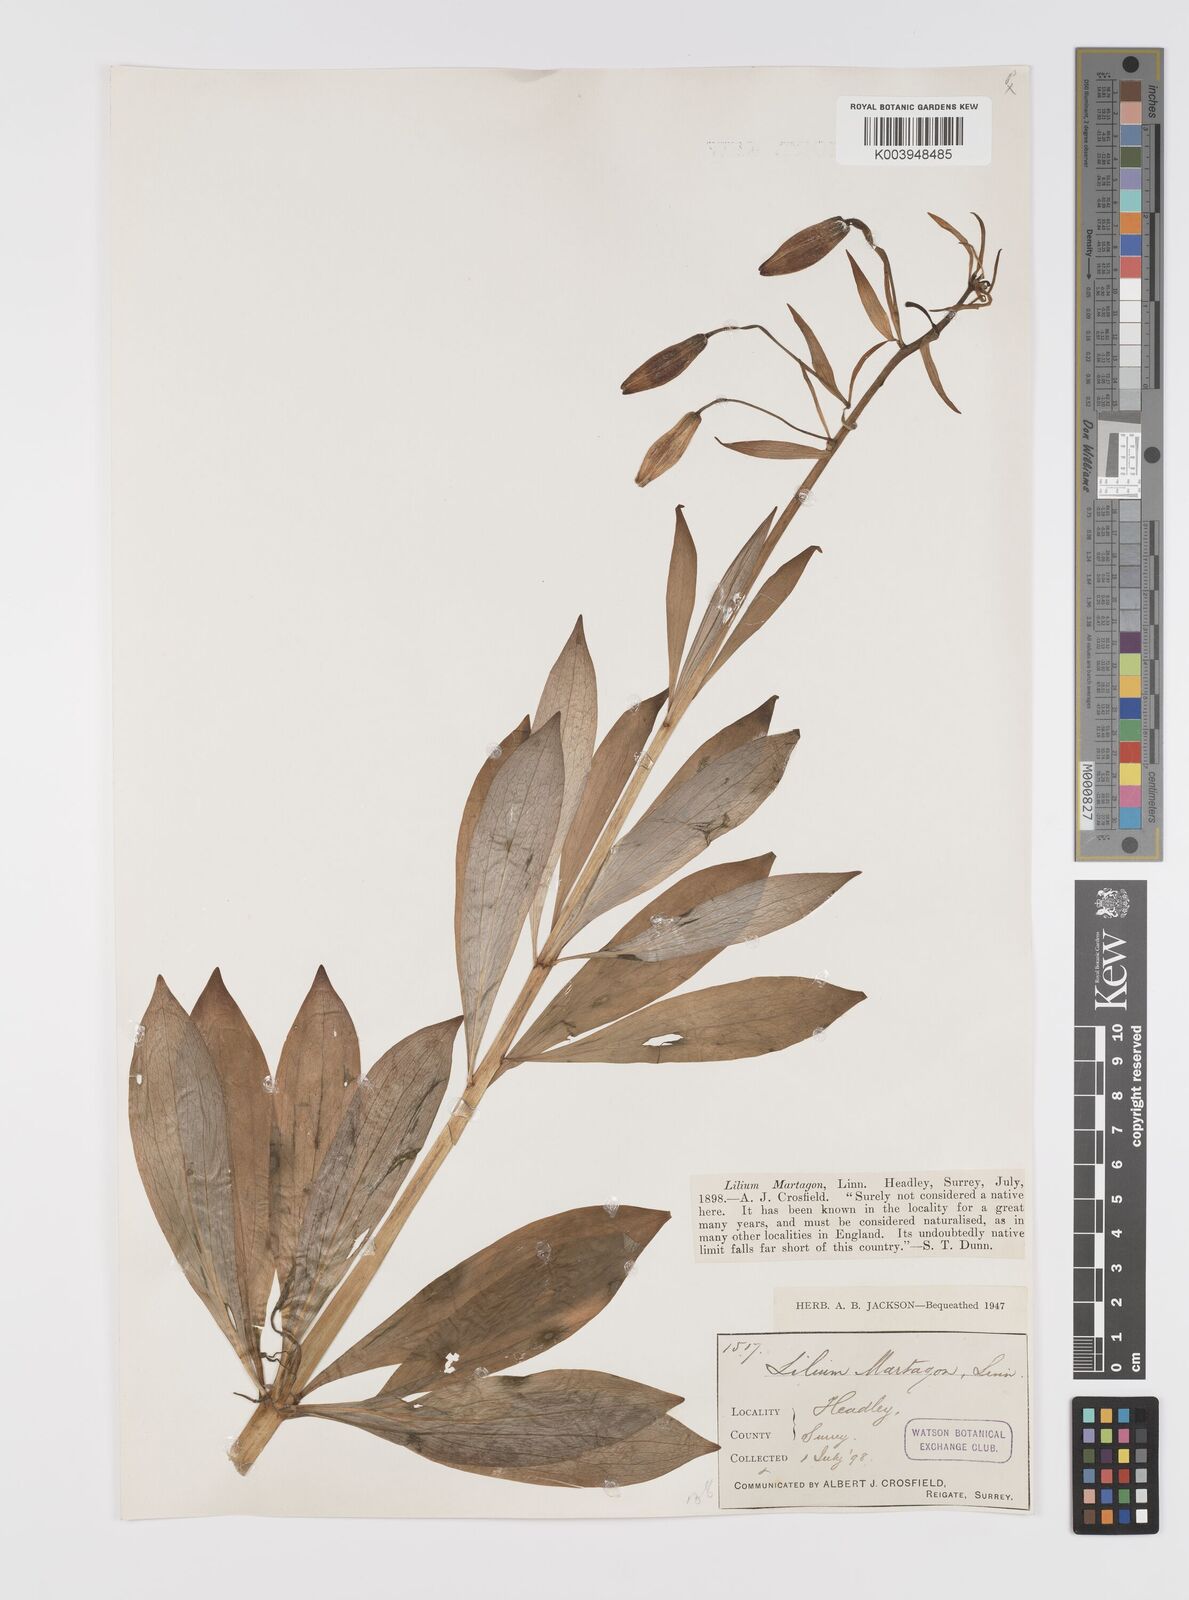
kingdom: Plantae
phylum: Tracheophyta
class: Liliopsida
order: Liliales
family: Liliaceae
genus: Lilium
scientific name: Lilium martagon
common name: Martagon lily
